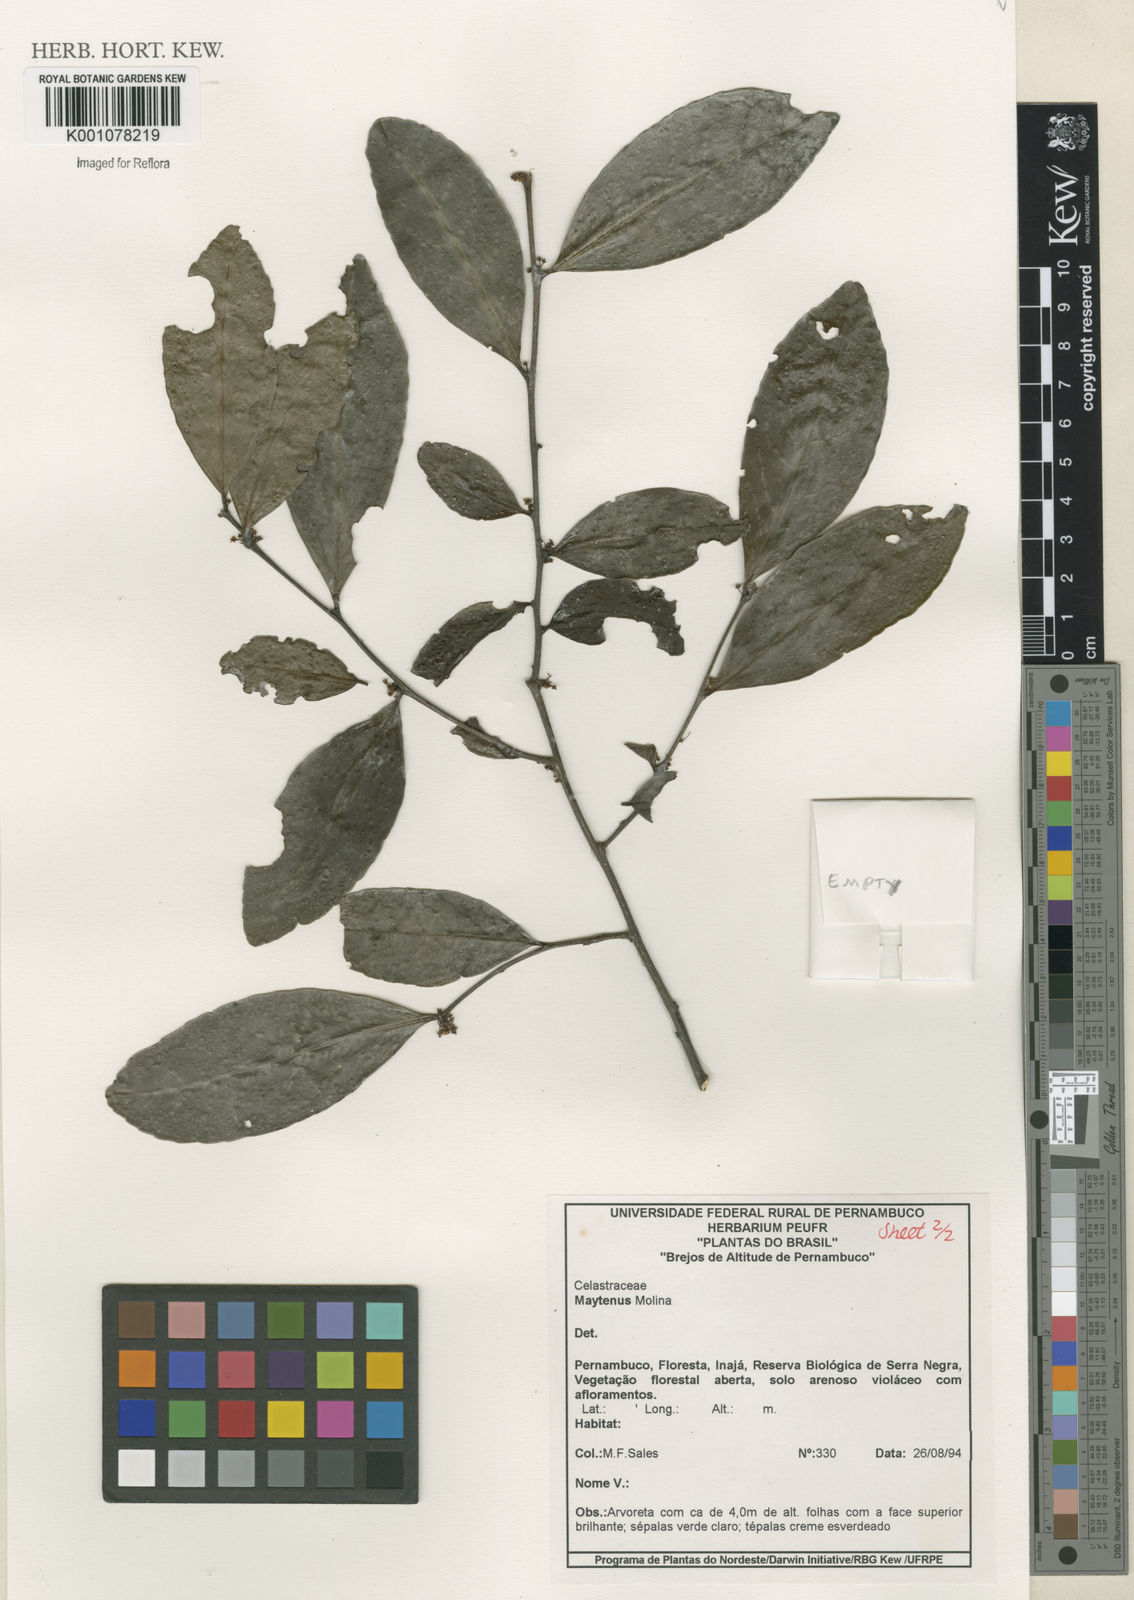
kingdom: Plantae
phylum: Tracheophyta
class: Magnoliopsida
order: Celastrales
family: Celastraceae
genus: Maytenus
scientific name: Maytenus
